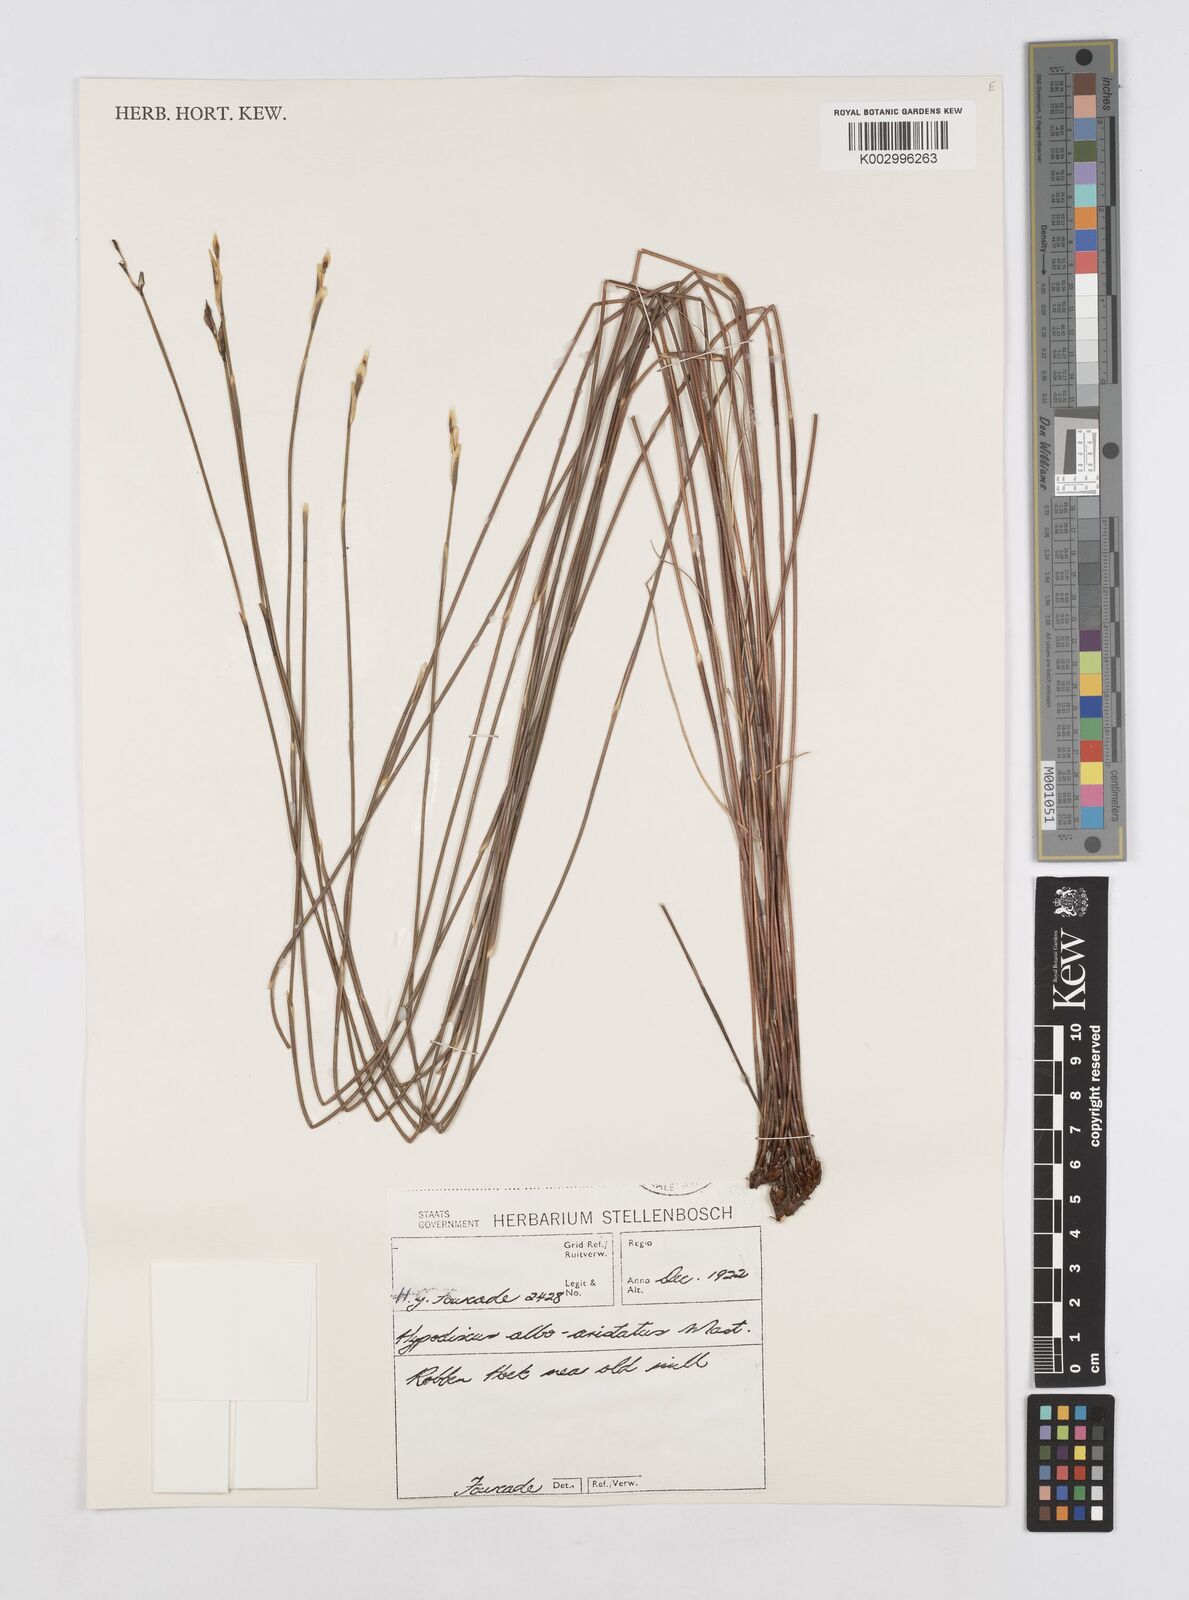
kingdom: Plantae
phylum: Tracheophyta
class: Liliopsida
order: Poales
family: Restionaceae
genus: Hypodiscus
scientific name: Hypodiscus alboaristatus
